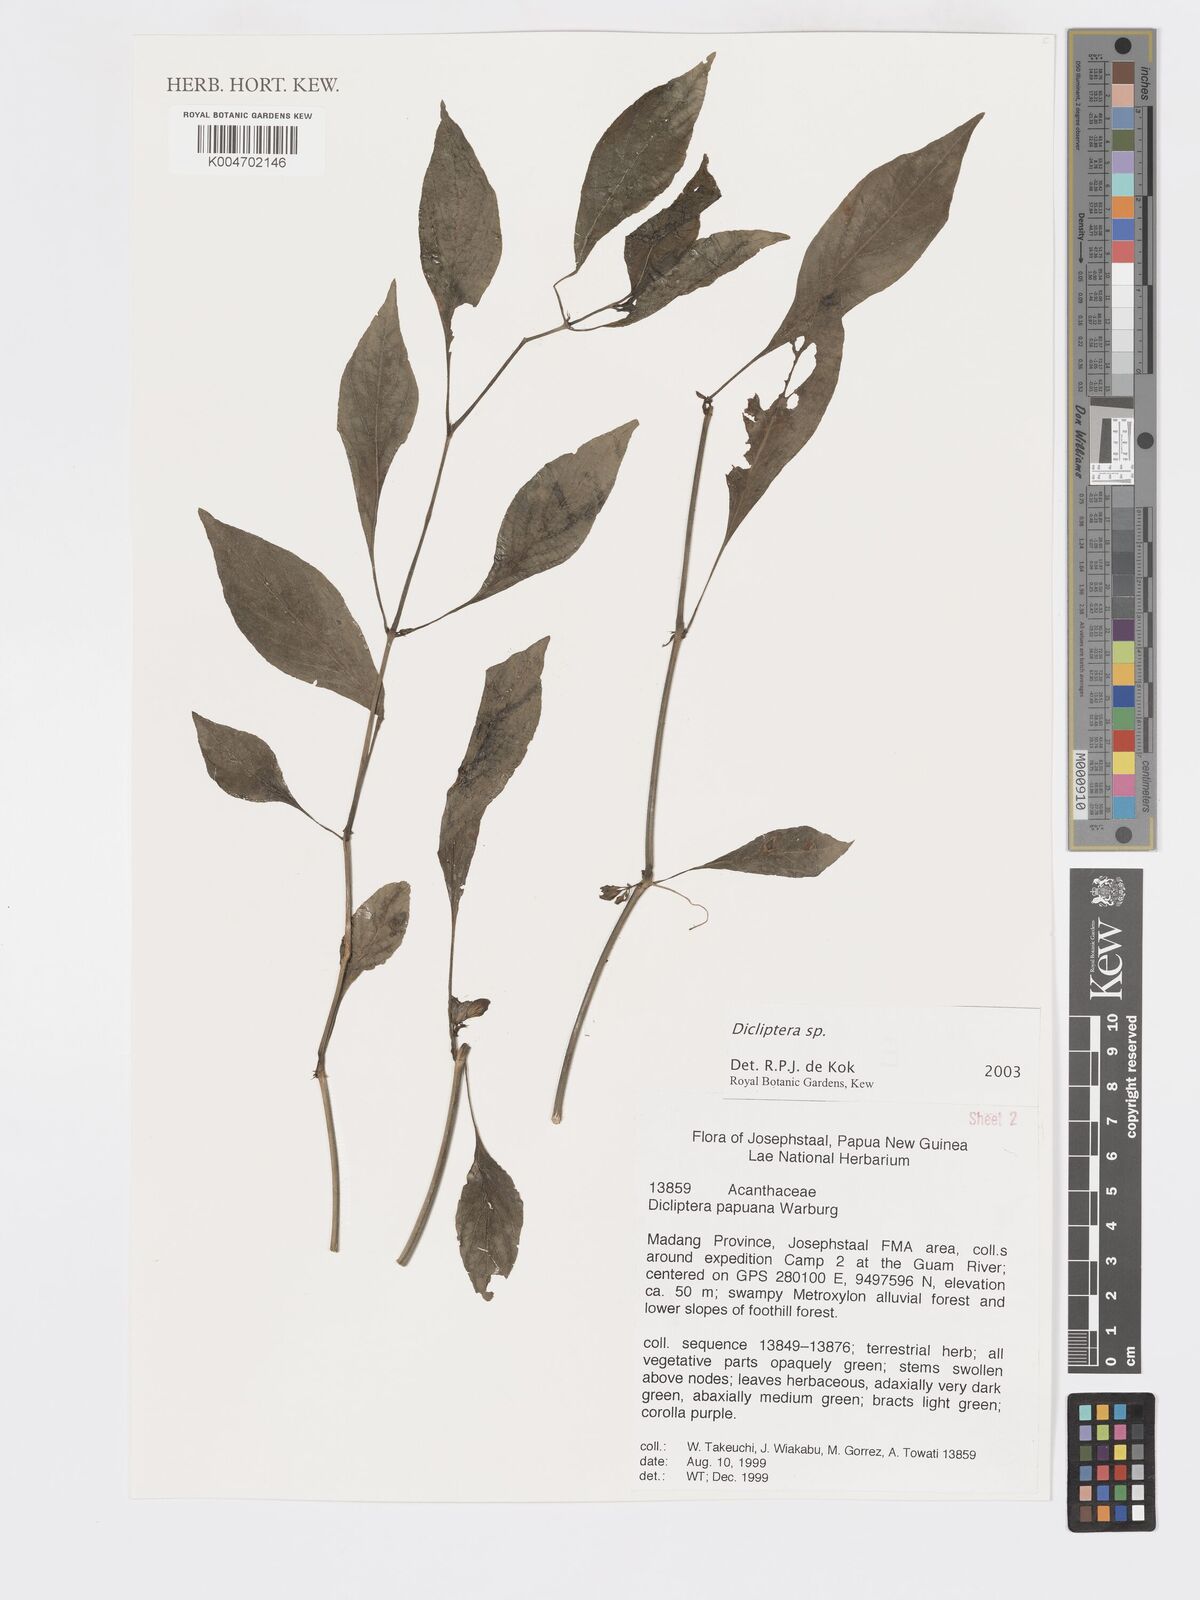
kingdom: Plantae
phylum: Tracheophyta
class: Magnoliopsida
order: Lamiales
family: Acanthaceae
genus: Dicliptera
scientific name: Dicliptera
